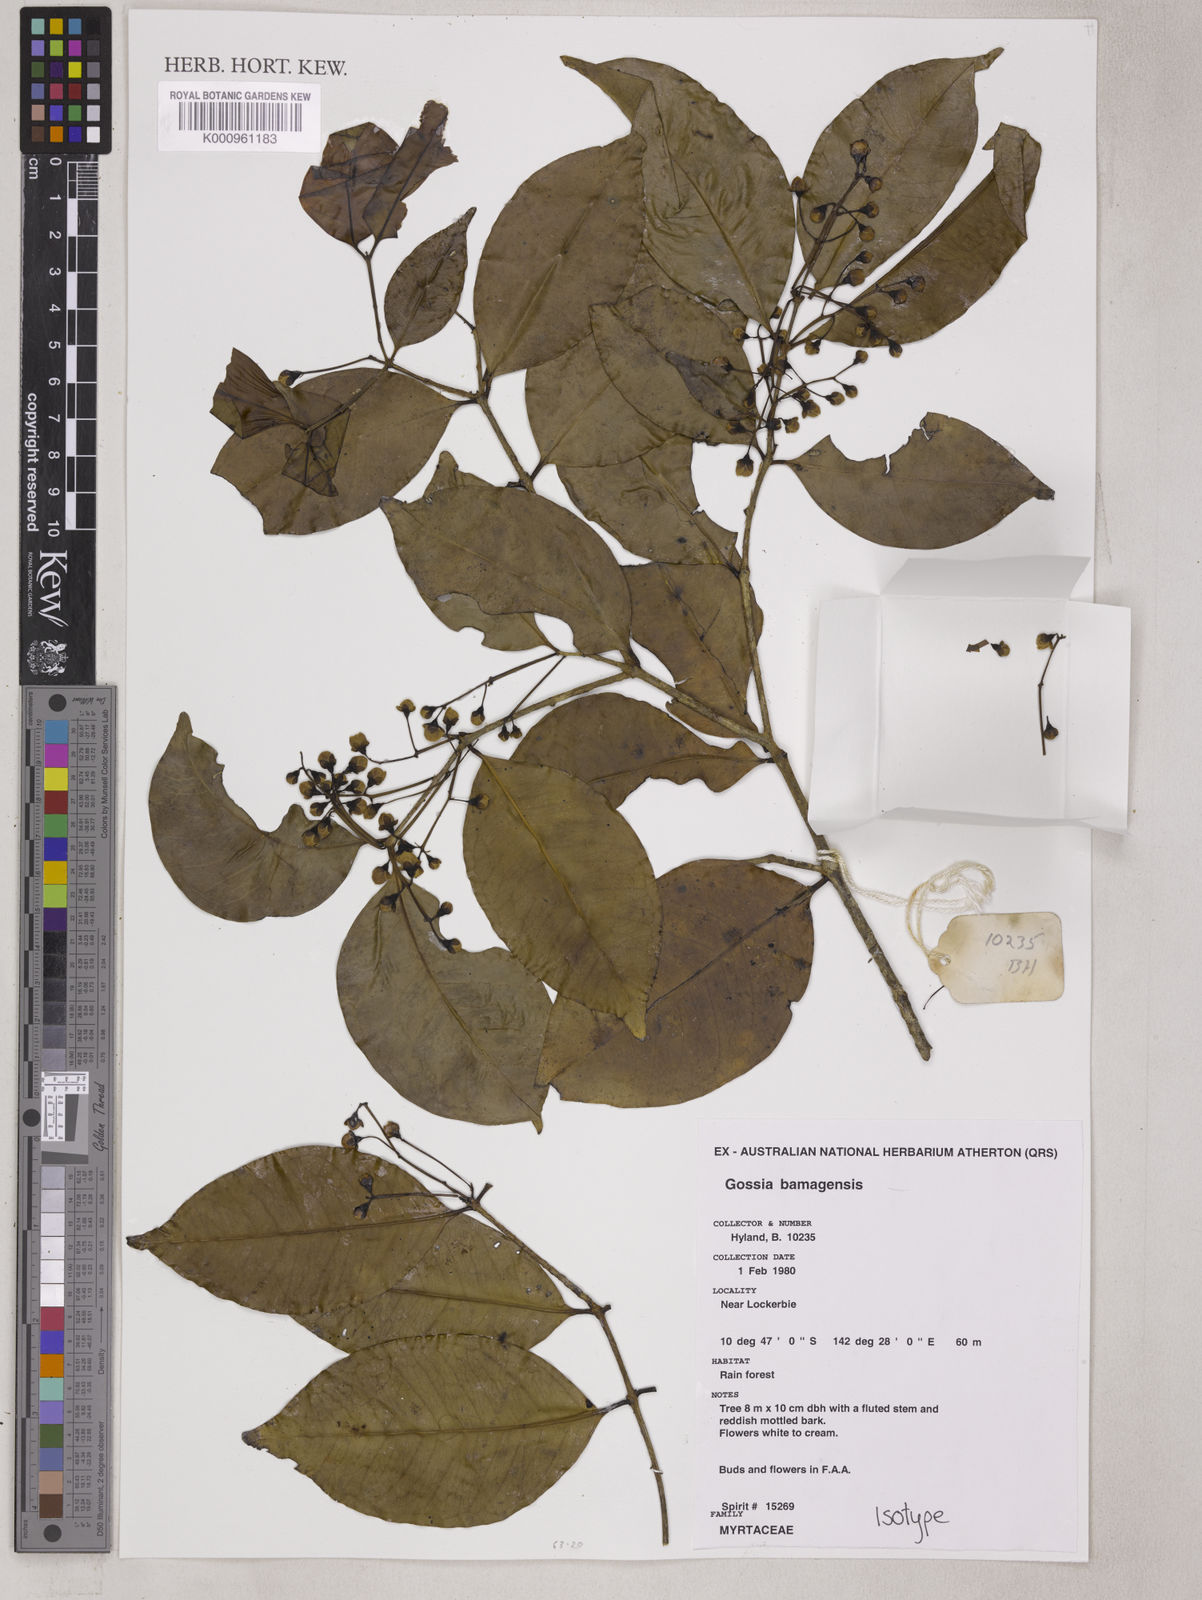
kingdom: Plantae
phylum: Tracheophyta
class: Magnoliopsida
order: Myrtales
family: Myrtaceae
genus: Gossia
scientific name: Gossia bamagensis
